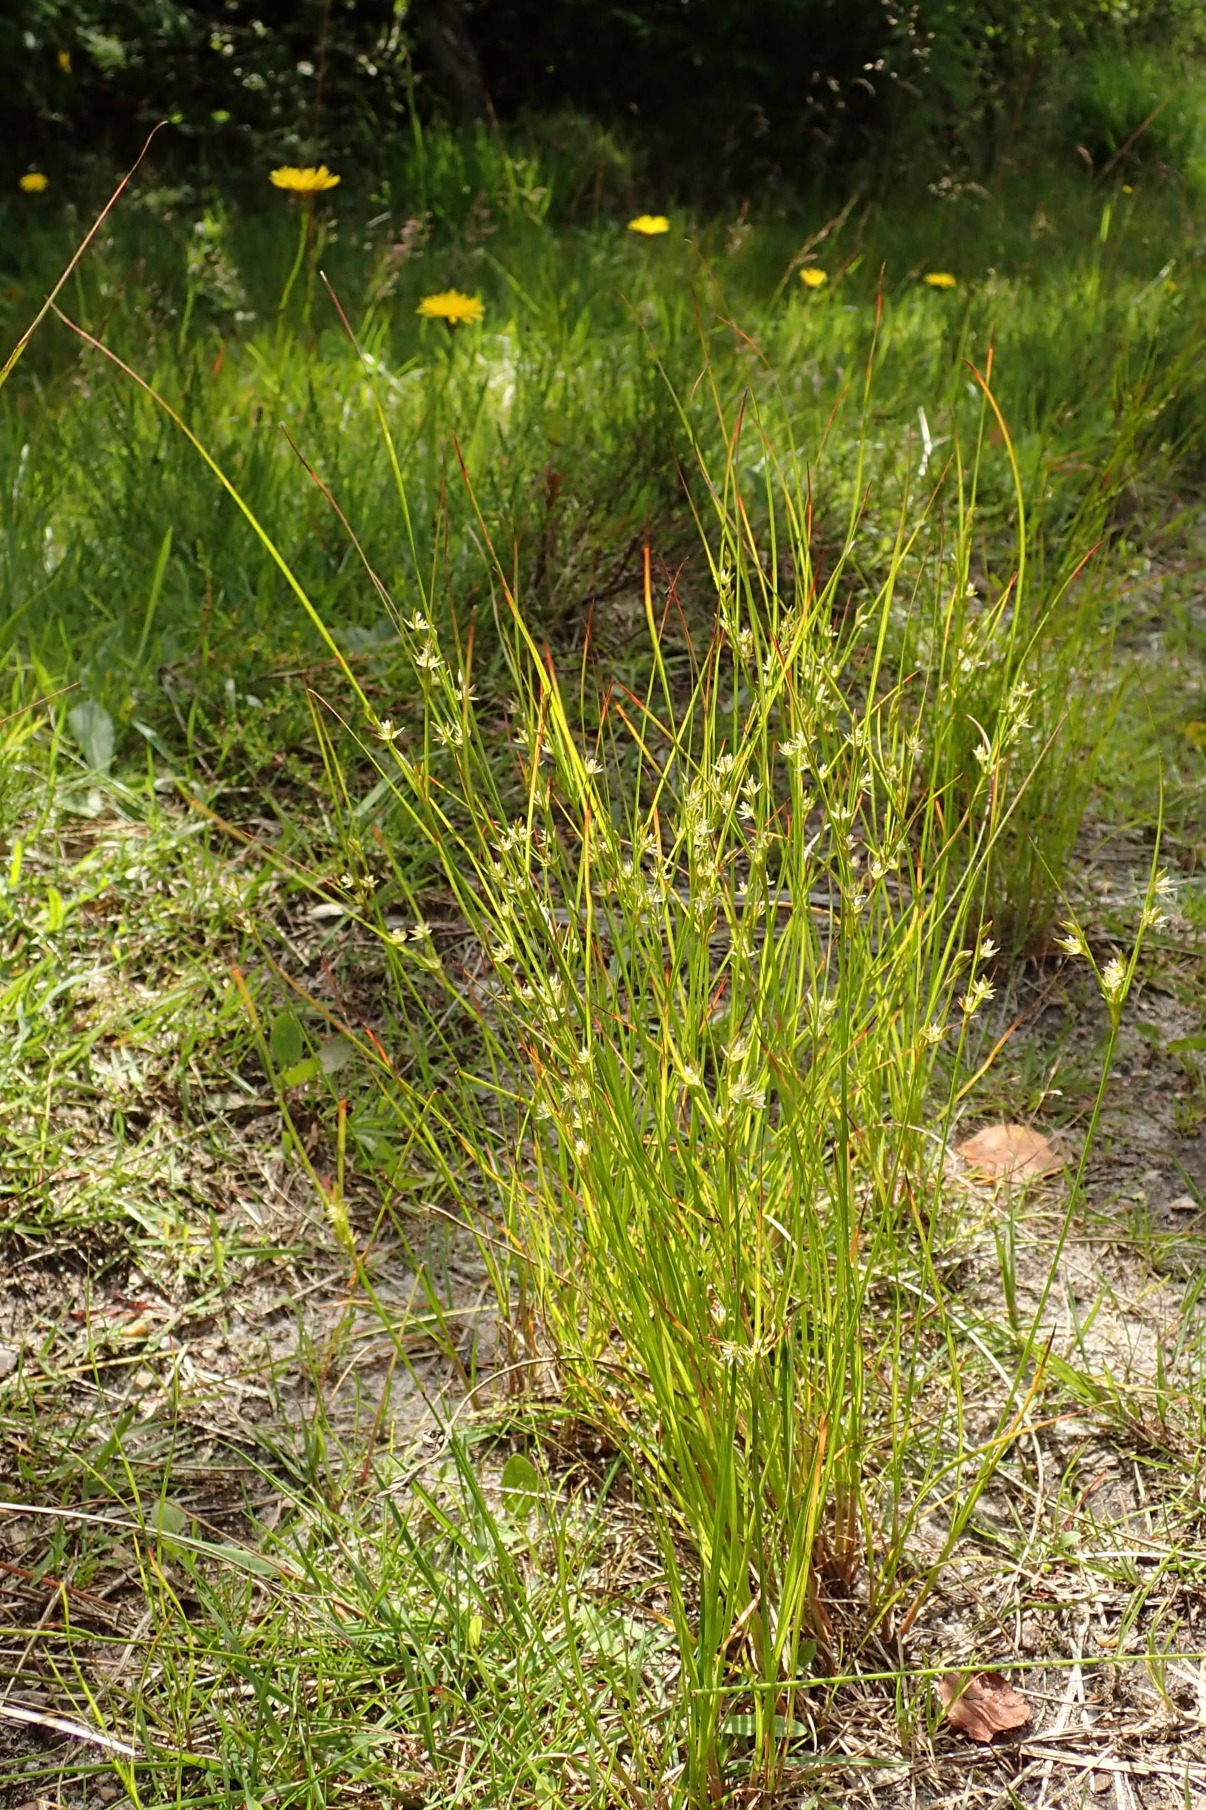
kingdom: Plantae
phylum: Tracheophyta
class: Liliopsida
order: Poales
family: Juncaceae
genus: Juncus
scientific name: Juncus tenuis
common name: Tue-siv
